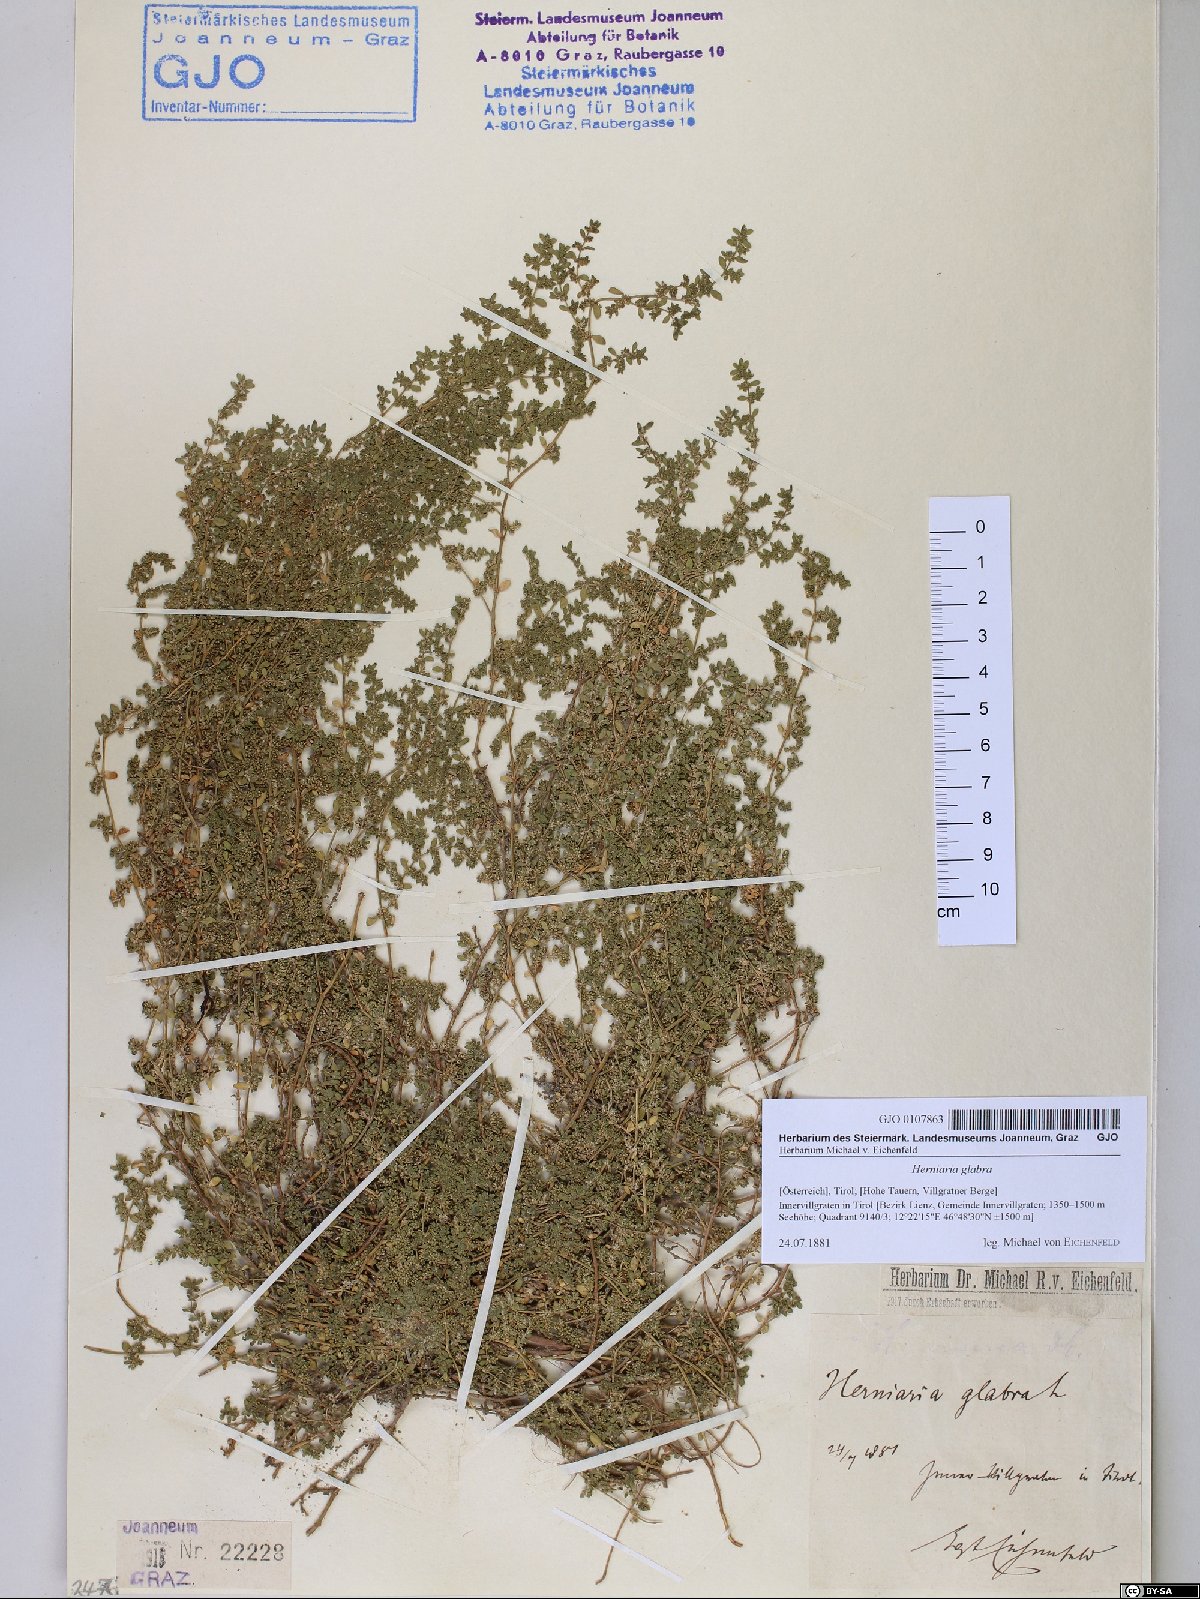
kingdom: Plantae
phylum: Tracheophyta
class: Magnoliopsida
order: Caryophyllales
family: Caryophyllaceae
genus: Herniaria
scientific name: Herniaria glabra
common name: Smooth rupturewort
